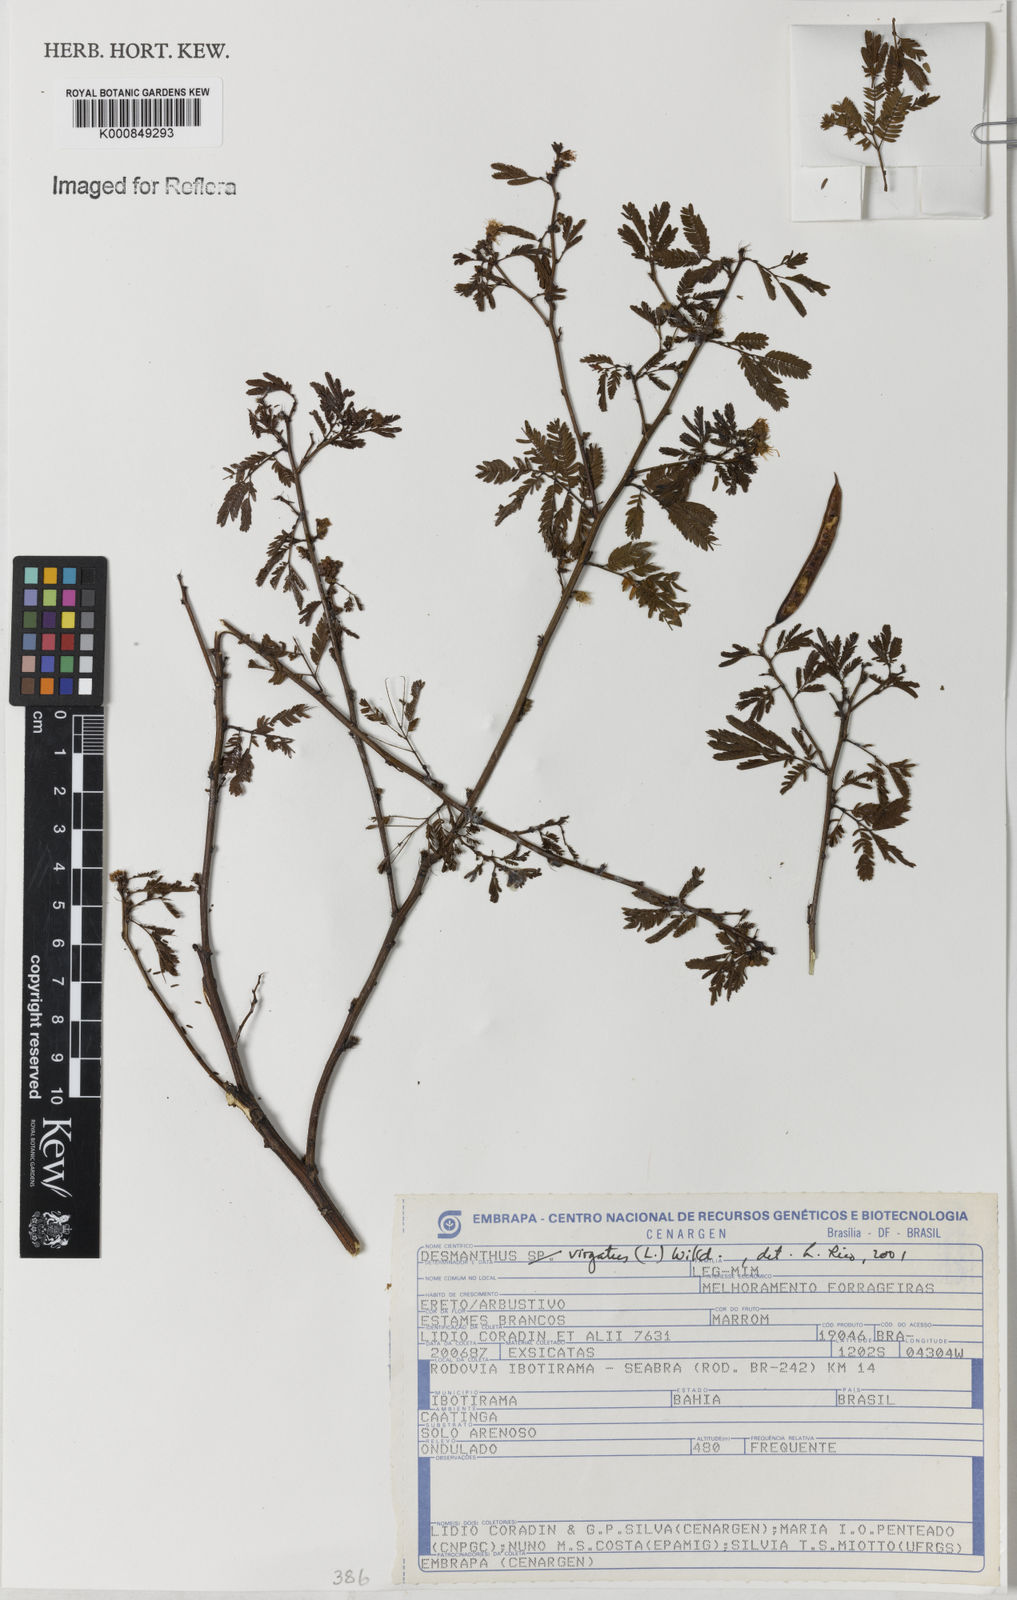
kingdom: Plantae
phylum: Tracheophyta
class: Magnoliopsida
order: Fabales
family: Fabaceae
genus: Desmanthus
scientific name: Desmanthus virgatus
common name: Wild tantan
